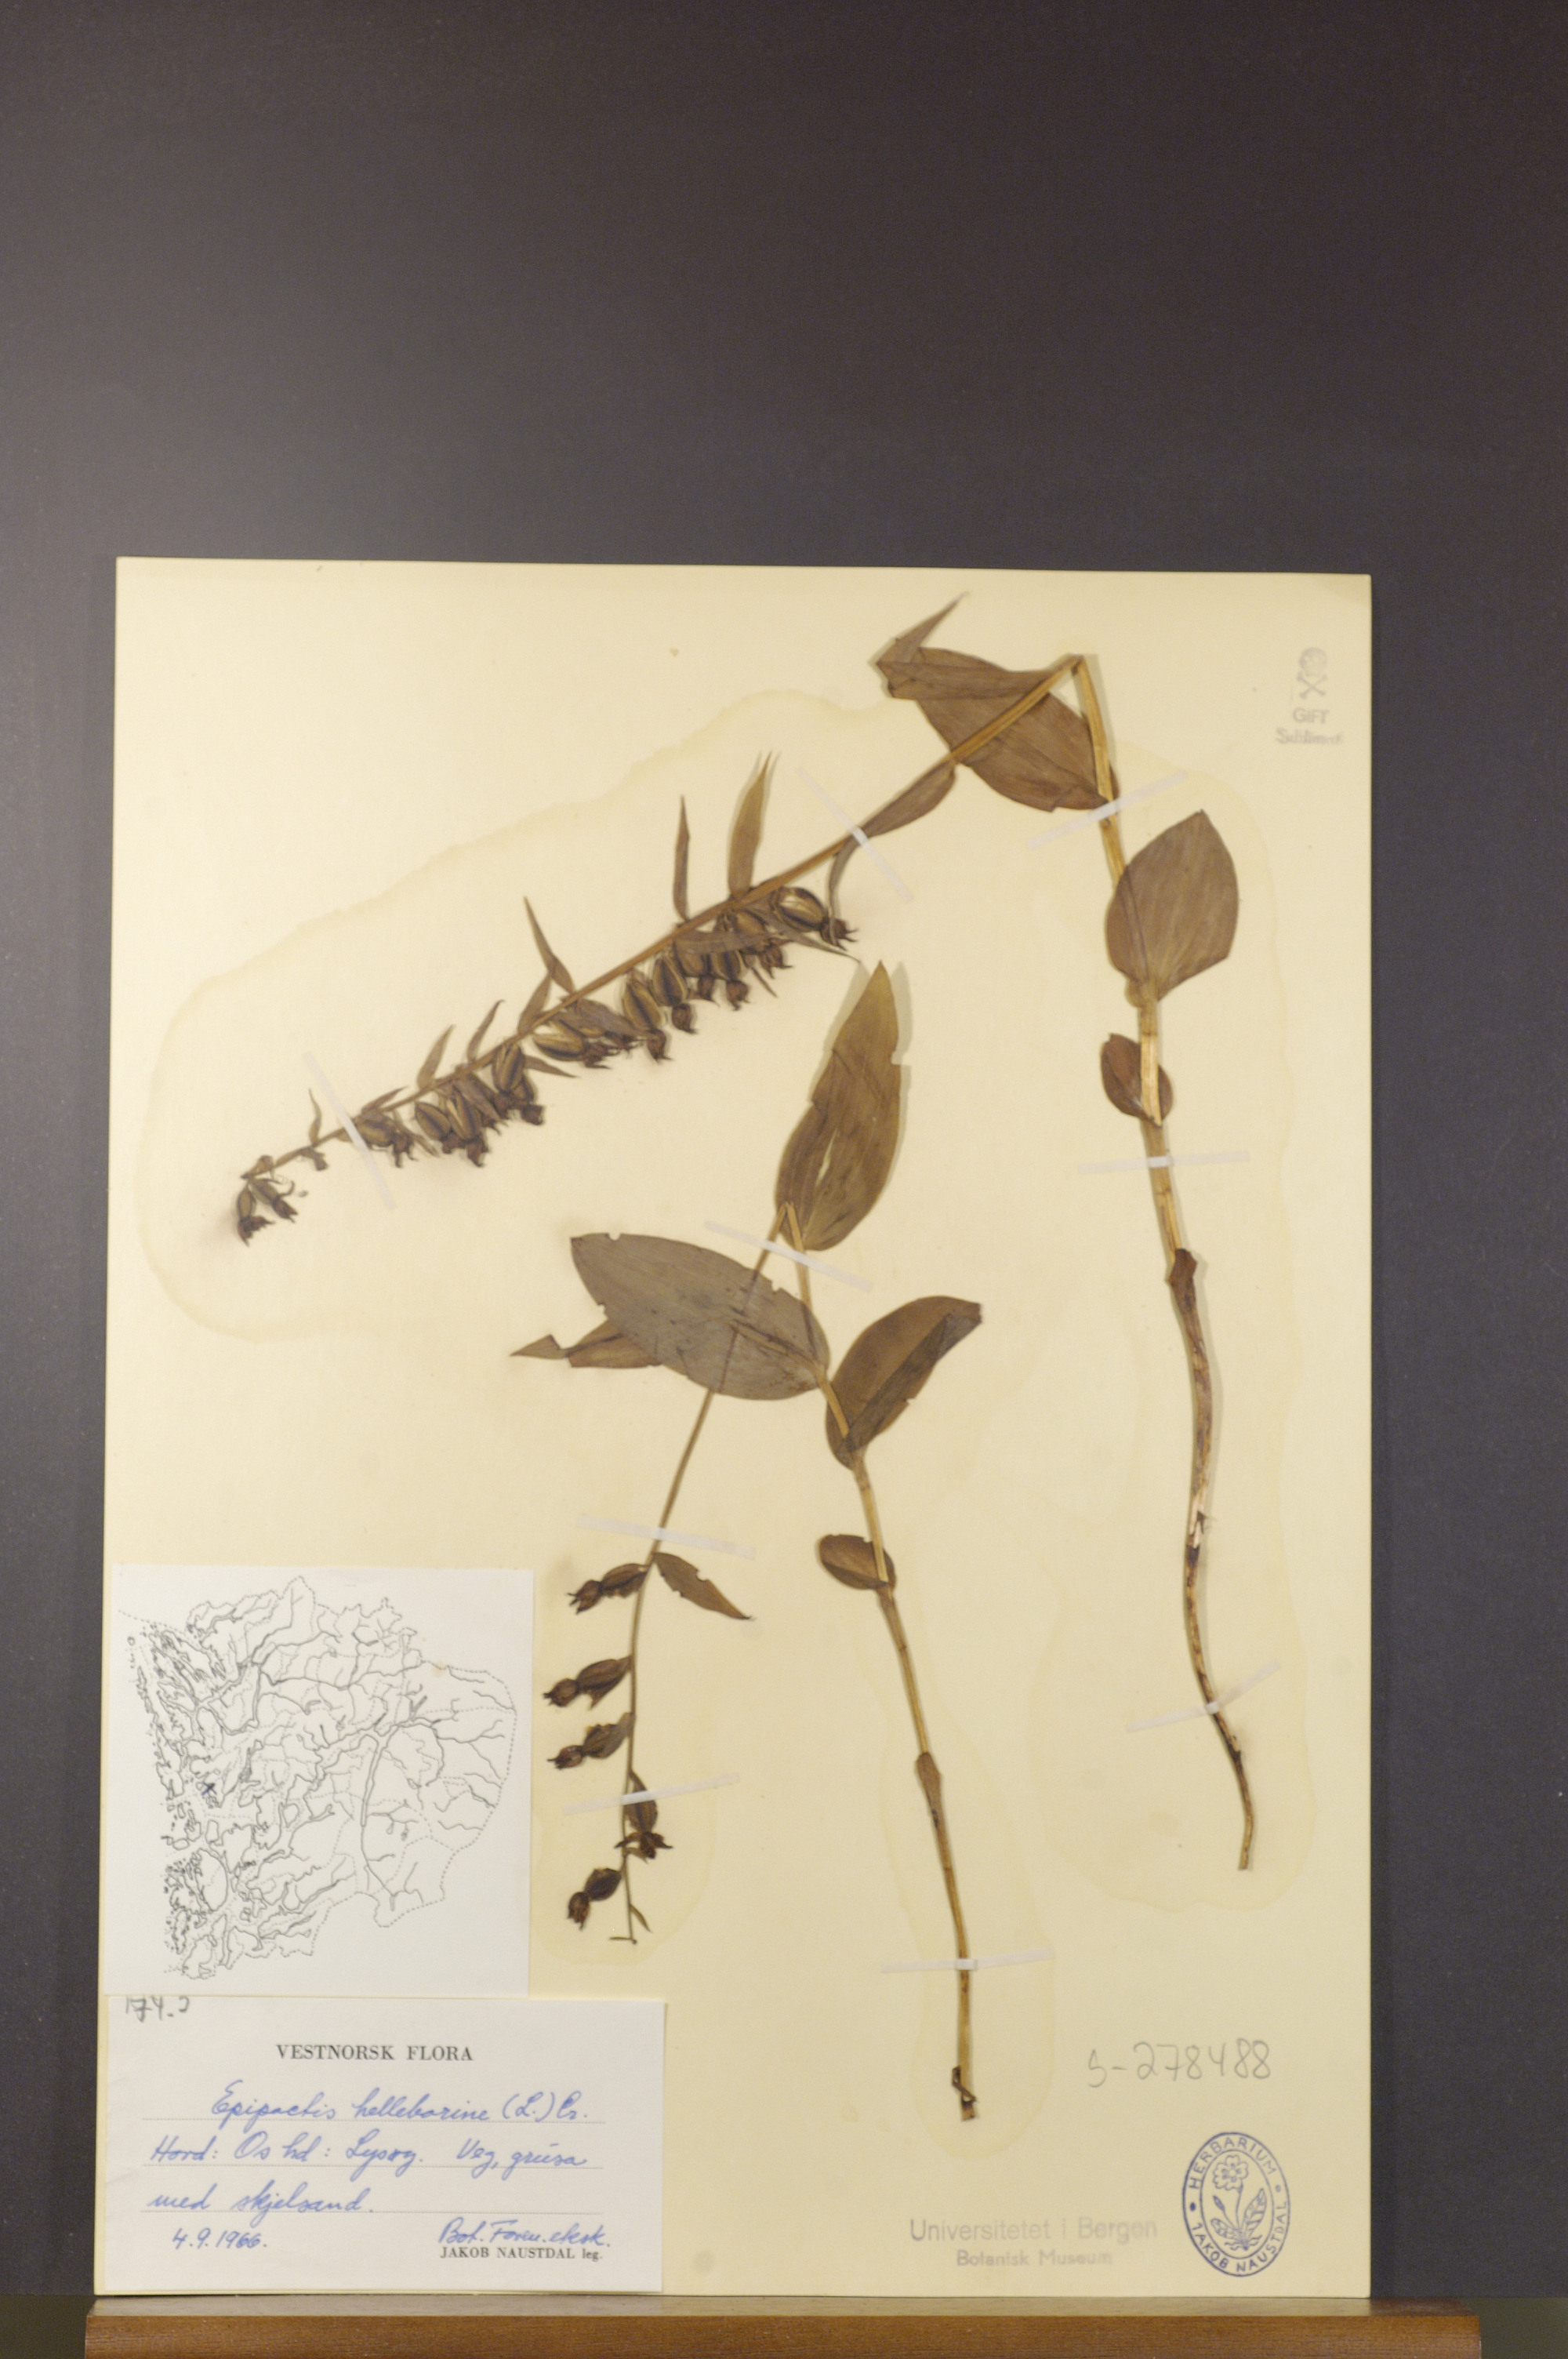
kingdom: Plantae
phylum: Tracheophyta
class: Liliopsida
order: Asparagales
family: Orchidaceae
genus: Epipactis
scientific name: Epipactis helleborine
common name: Broad-leaved helleborine
